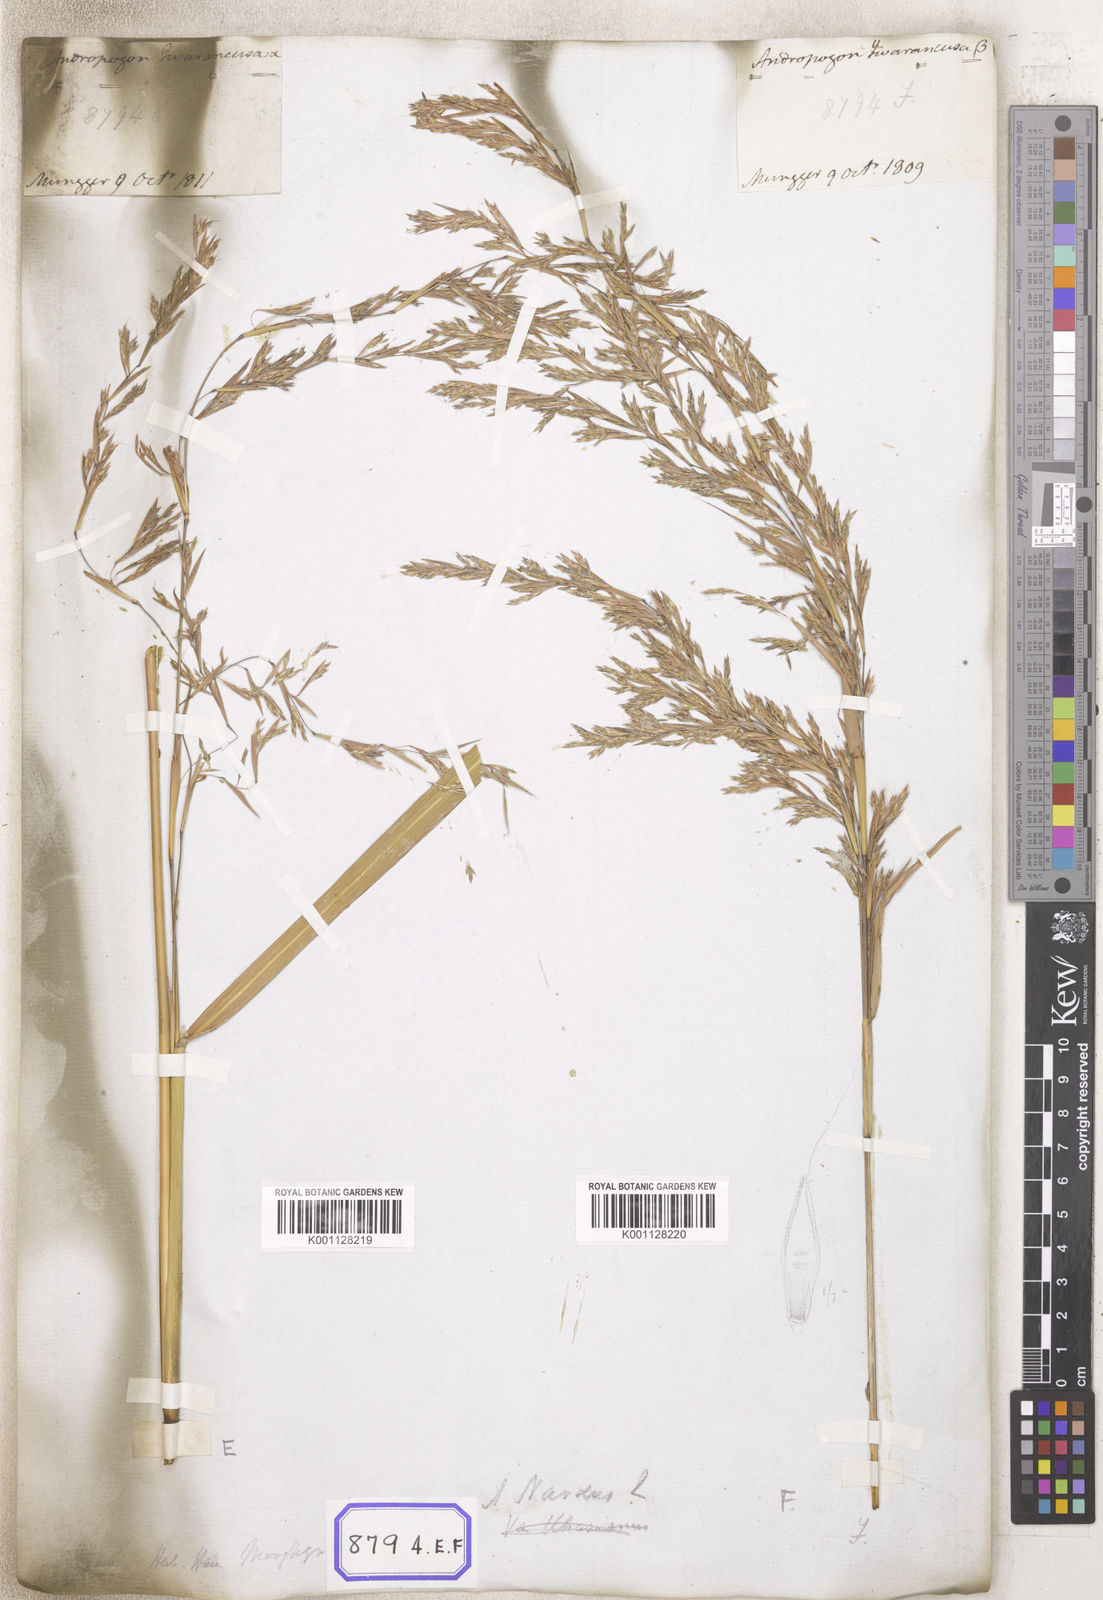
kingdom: Plantae
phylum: Tracheophyta
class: Liliopsida
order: Poales
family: Poaceae
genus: Cymbopogon
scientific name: Cymbopogon schoenanthus
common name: Geranium grass
